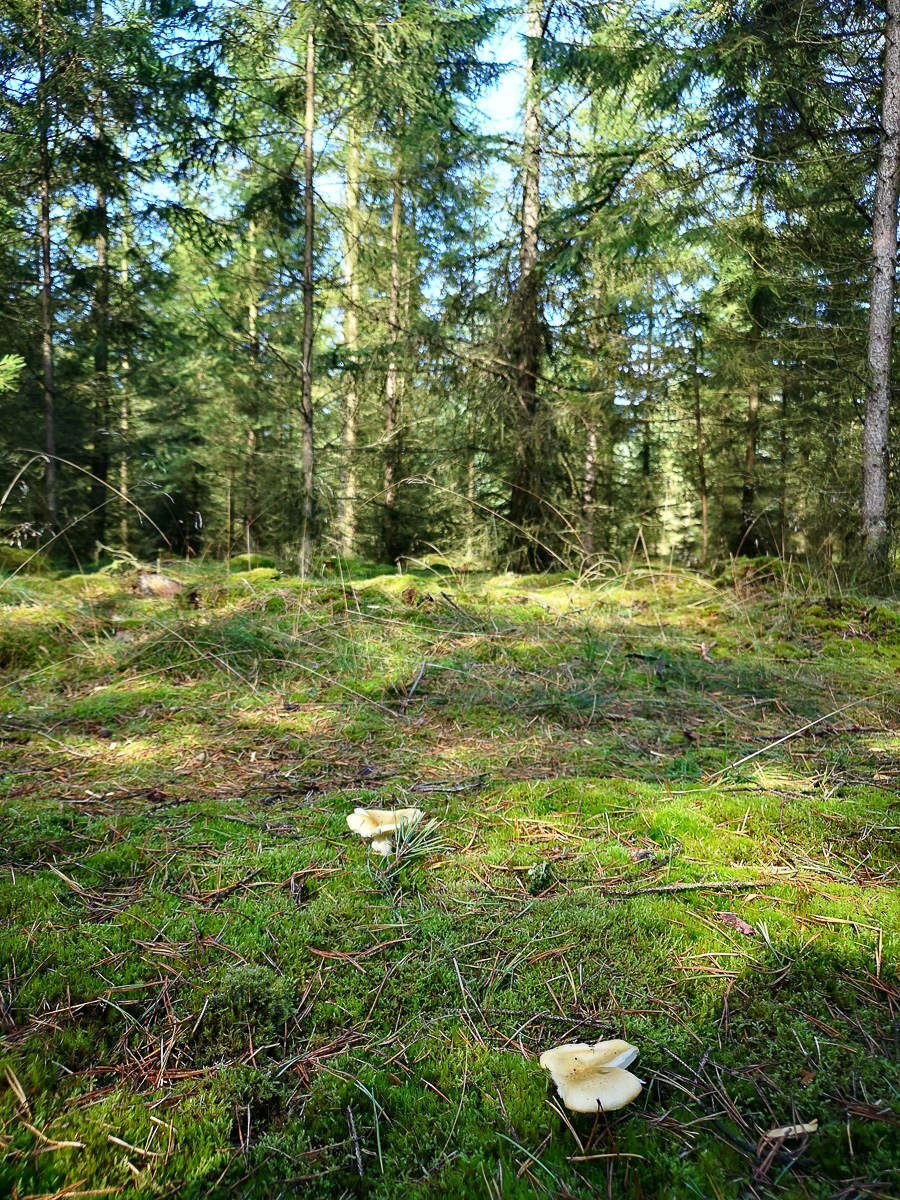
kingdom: Fungi
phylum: Basidiomycota
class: Agaricomycetes
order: Russulales
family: Russulaceae
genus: Russula
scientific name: Russula ochroleuca
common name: okkergul skørhat
